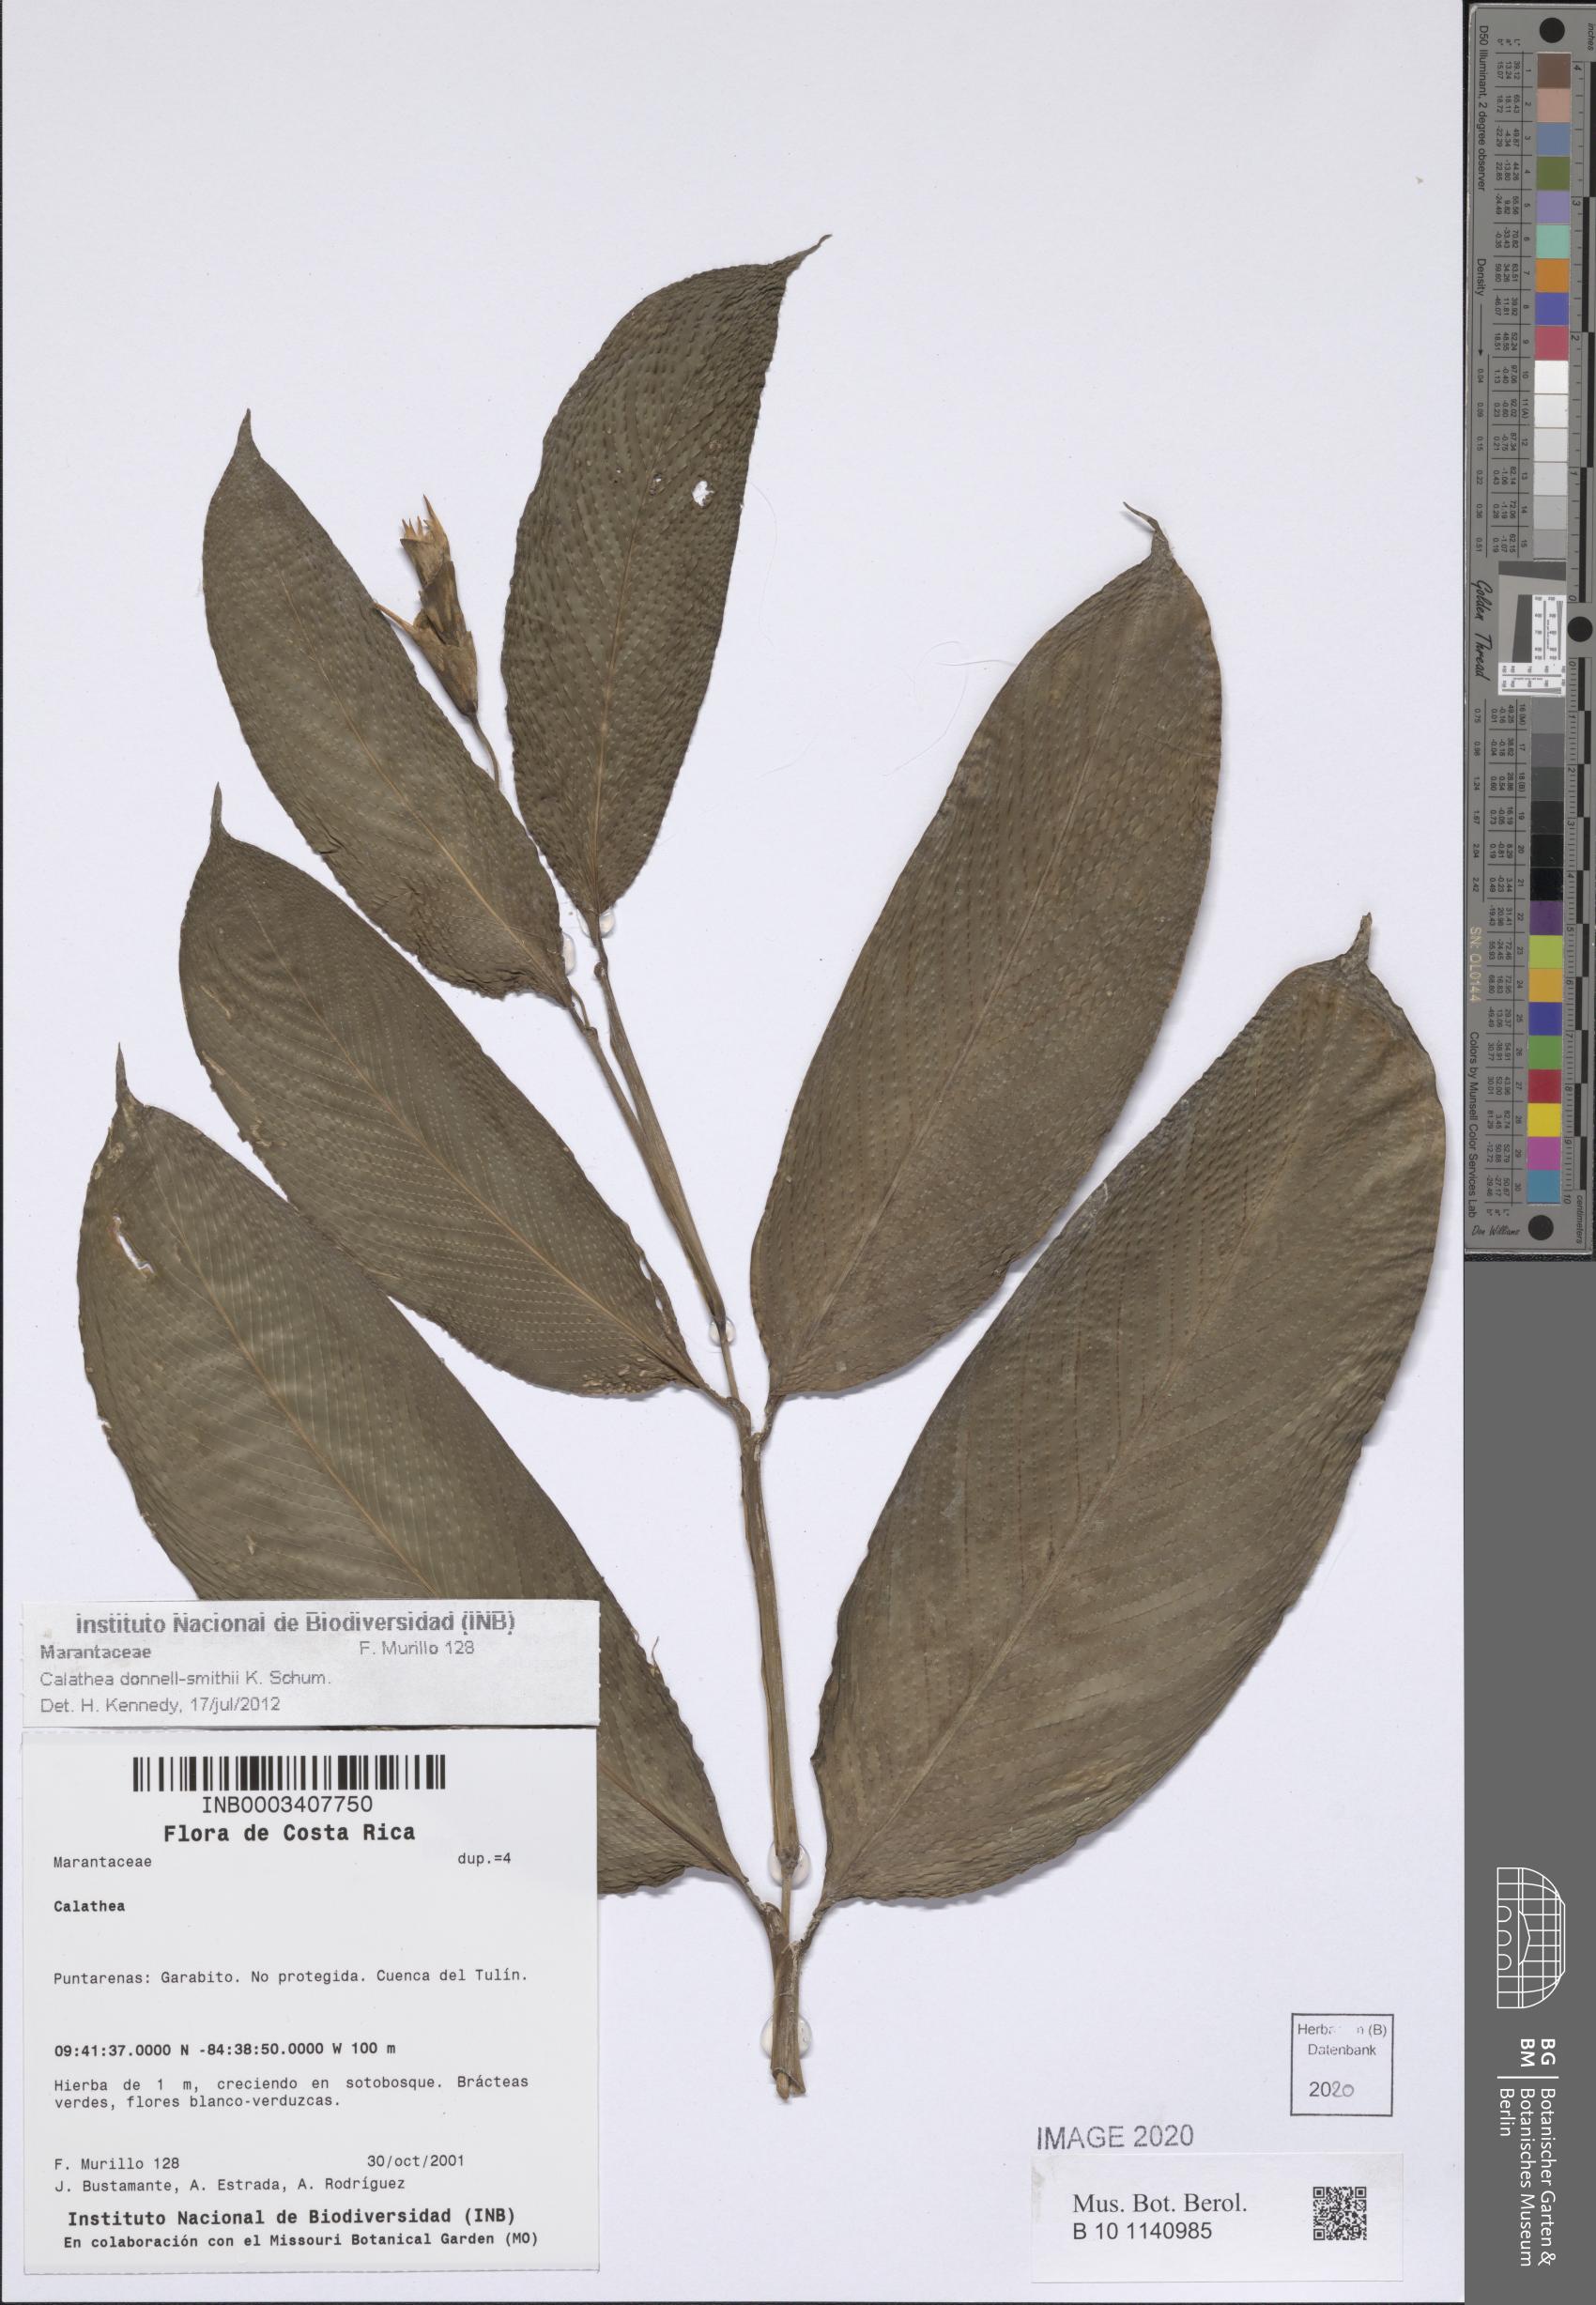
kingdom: Plantae
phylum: Tracheophyta
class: Liliopsida
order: Zingiberales
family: Marantaceae
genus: Goeppertia
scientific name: Goeppertia donnell-smithii
